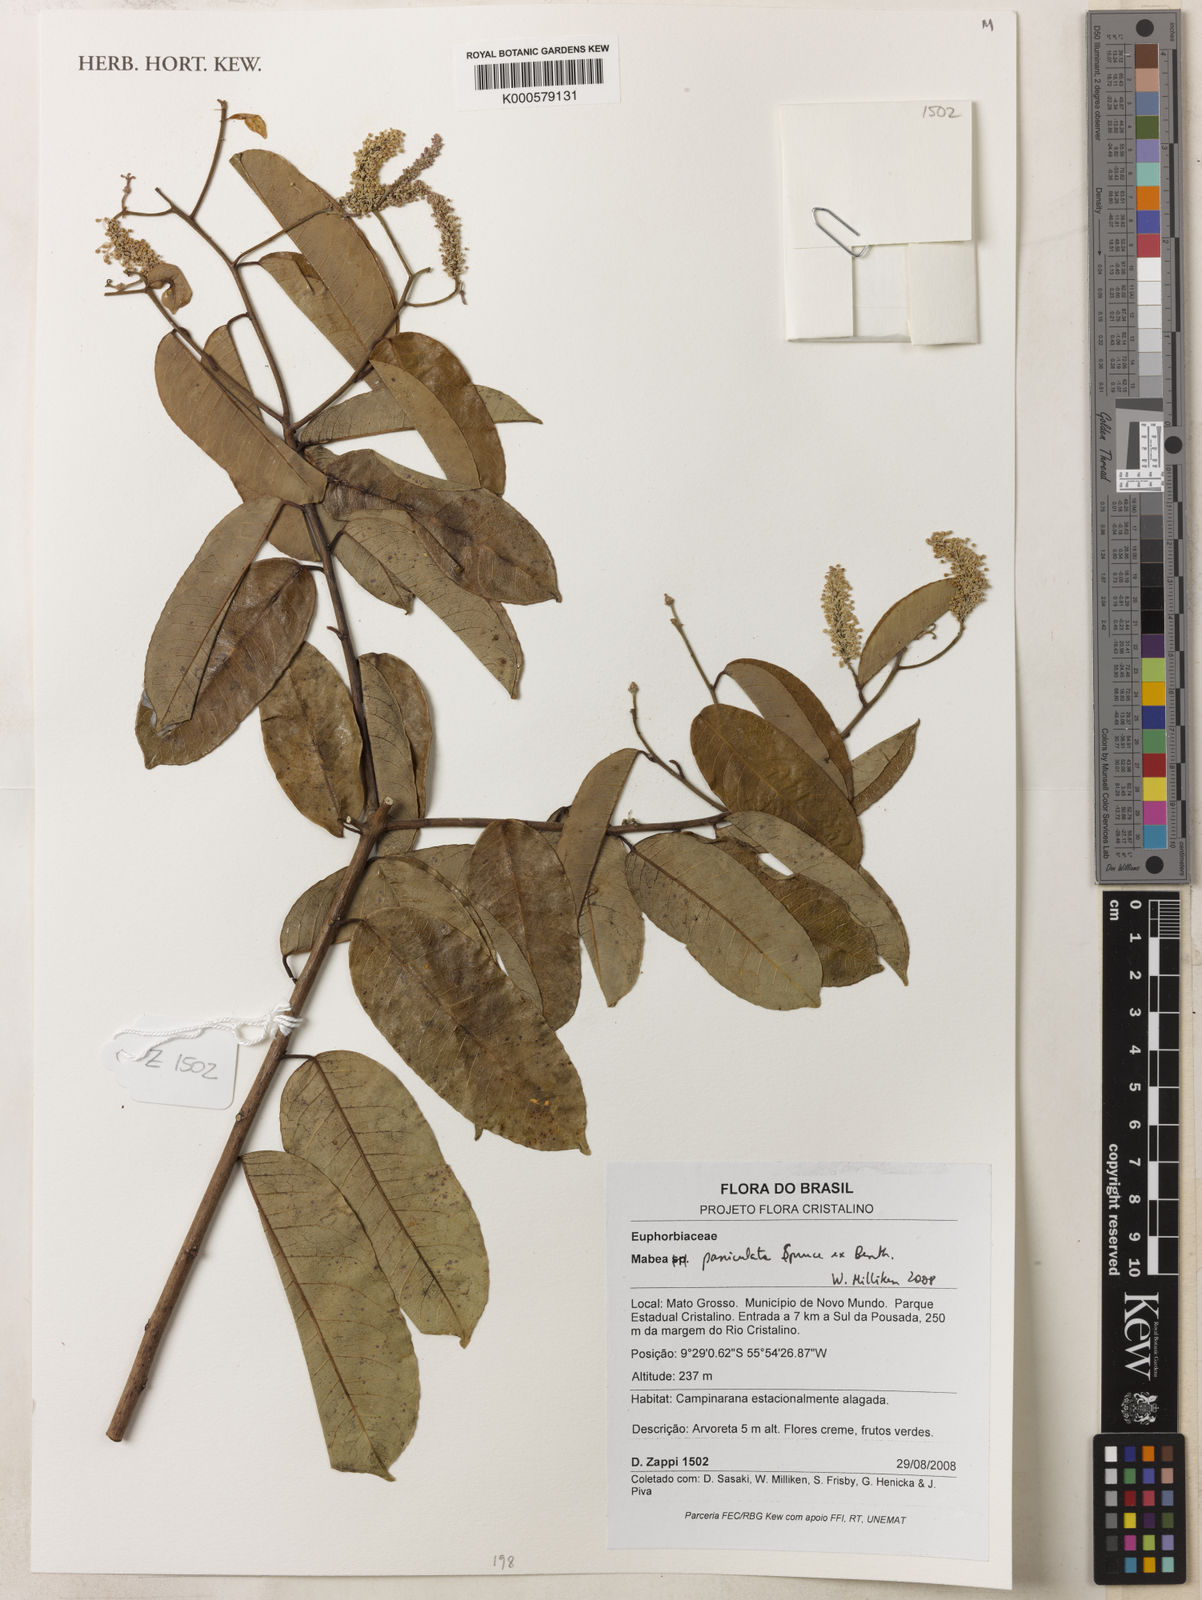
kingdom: Plantae
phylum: Tracheophyta
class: Magnoliopsida
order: Malpighiales
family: Euphorbiaceae
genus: Mabea
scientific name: Mabea paniculata
